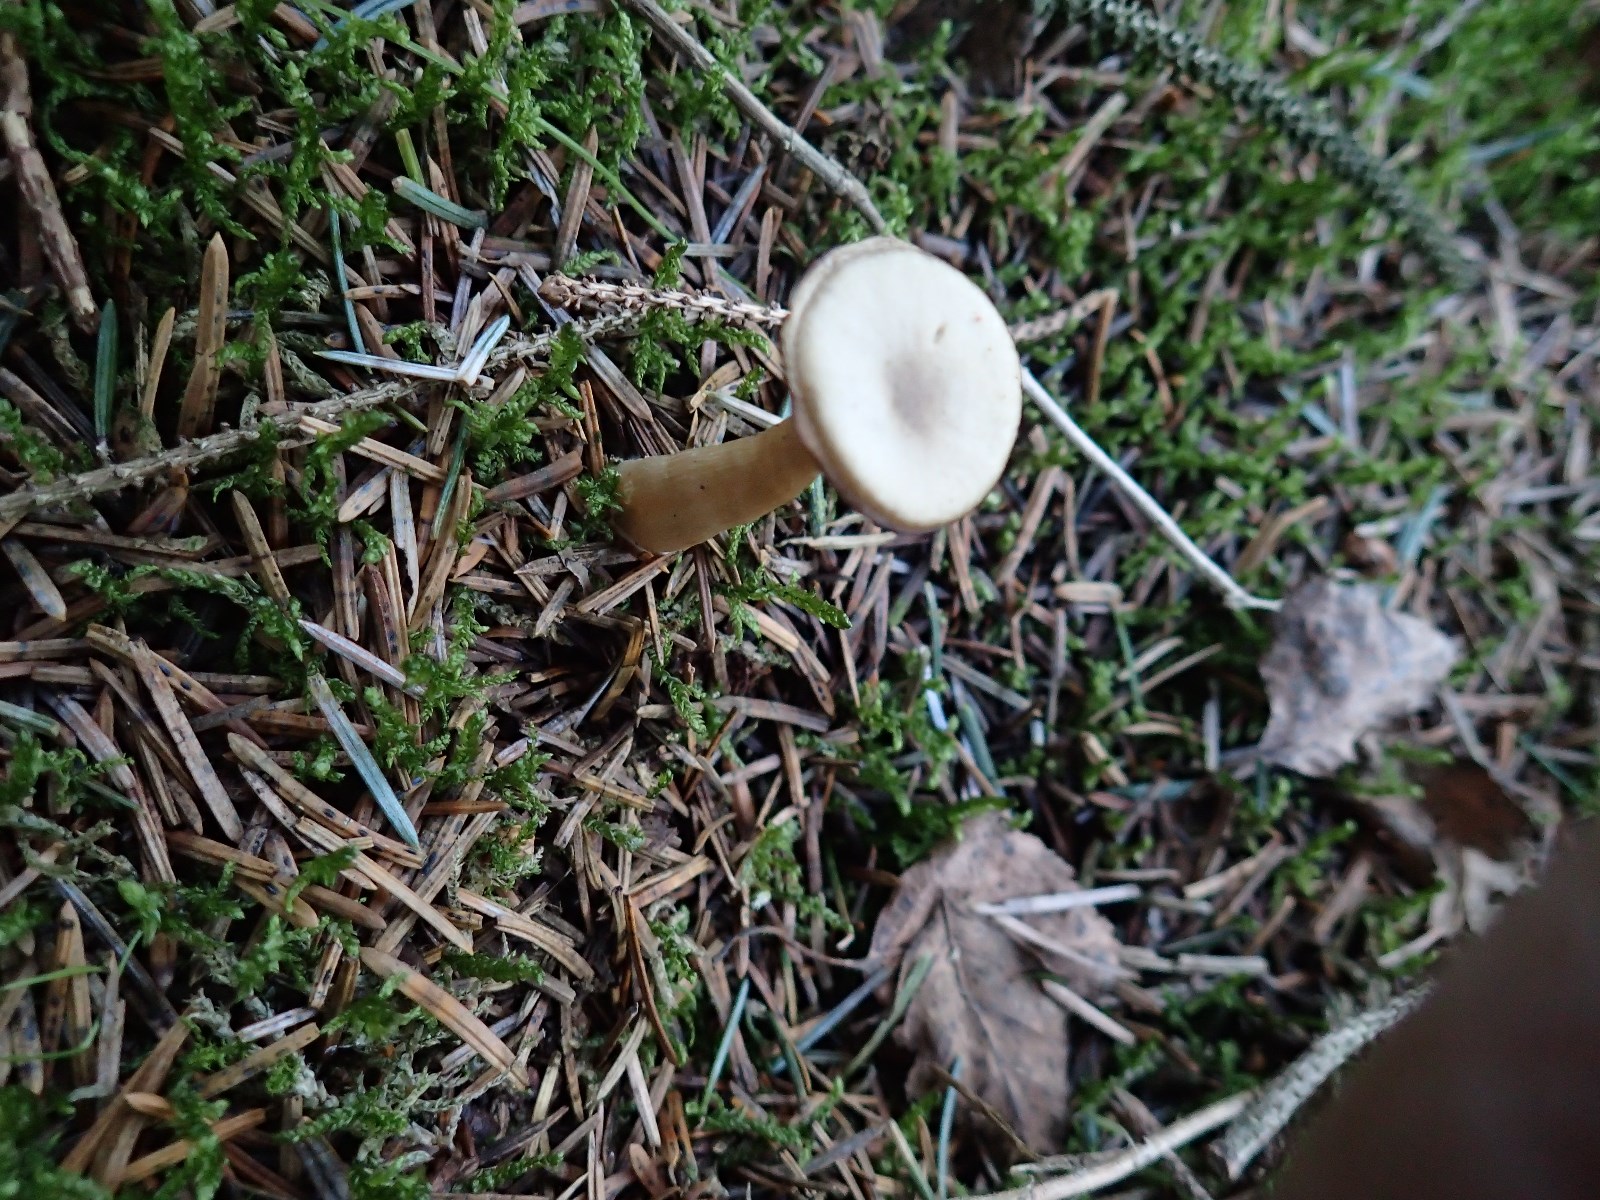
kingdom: Fungi
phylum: Basidiomycota
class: Agaricomycetes
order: Agaricales
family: Pseudoclitocybaceae
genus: Pseudoclitocybe
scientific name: Pseudoclitocybe cyathiformis
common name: almindelig bægertragthat
